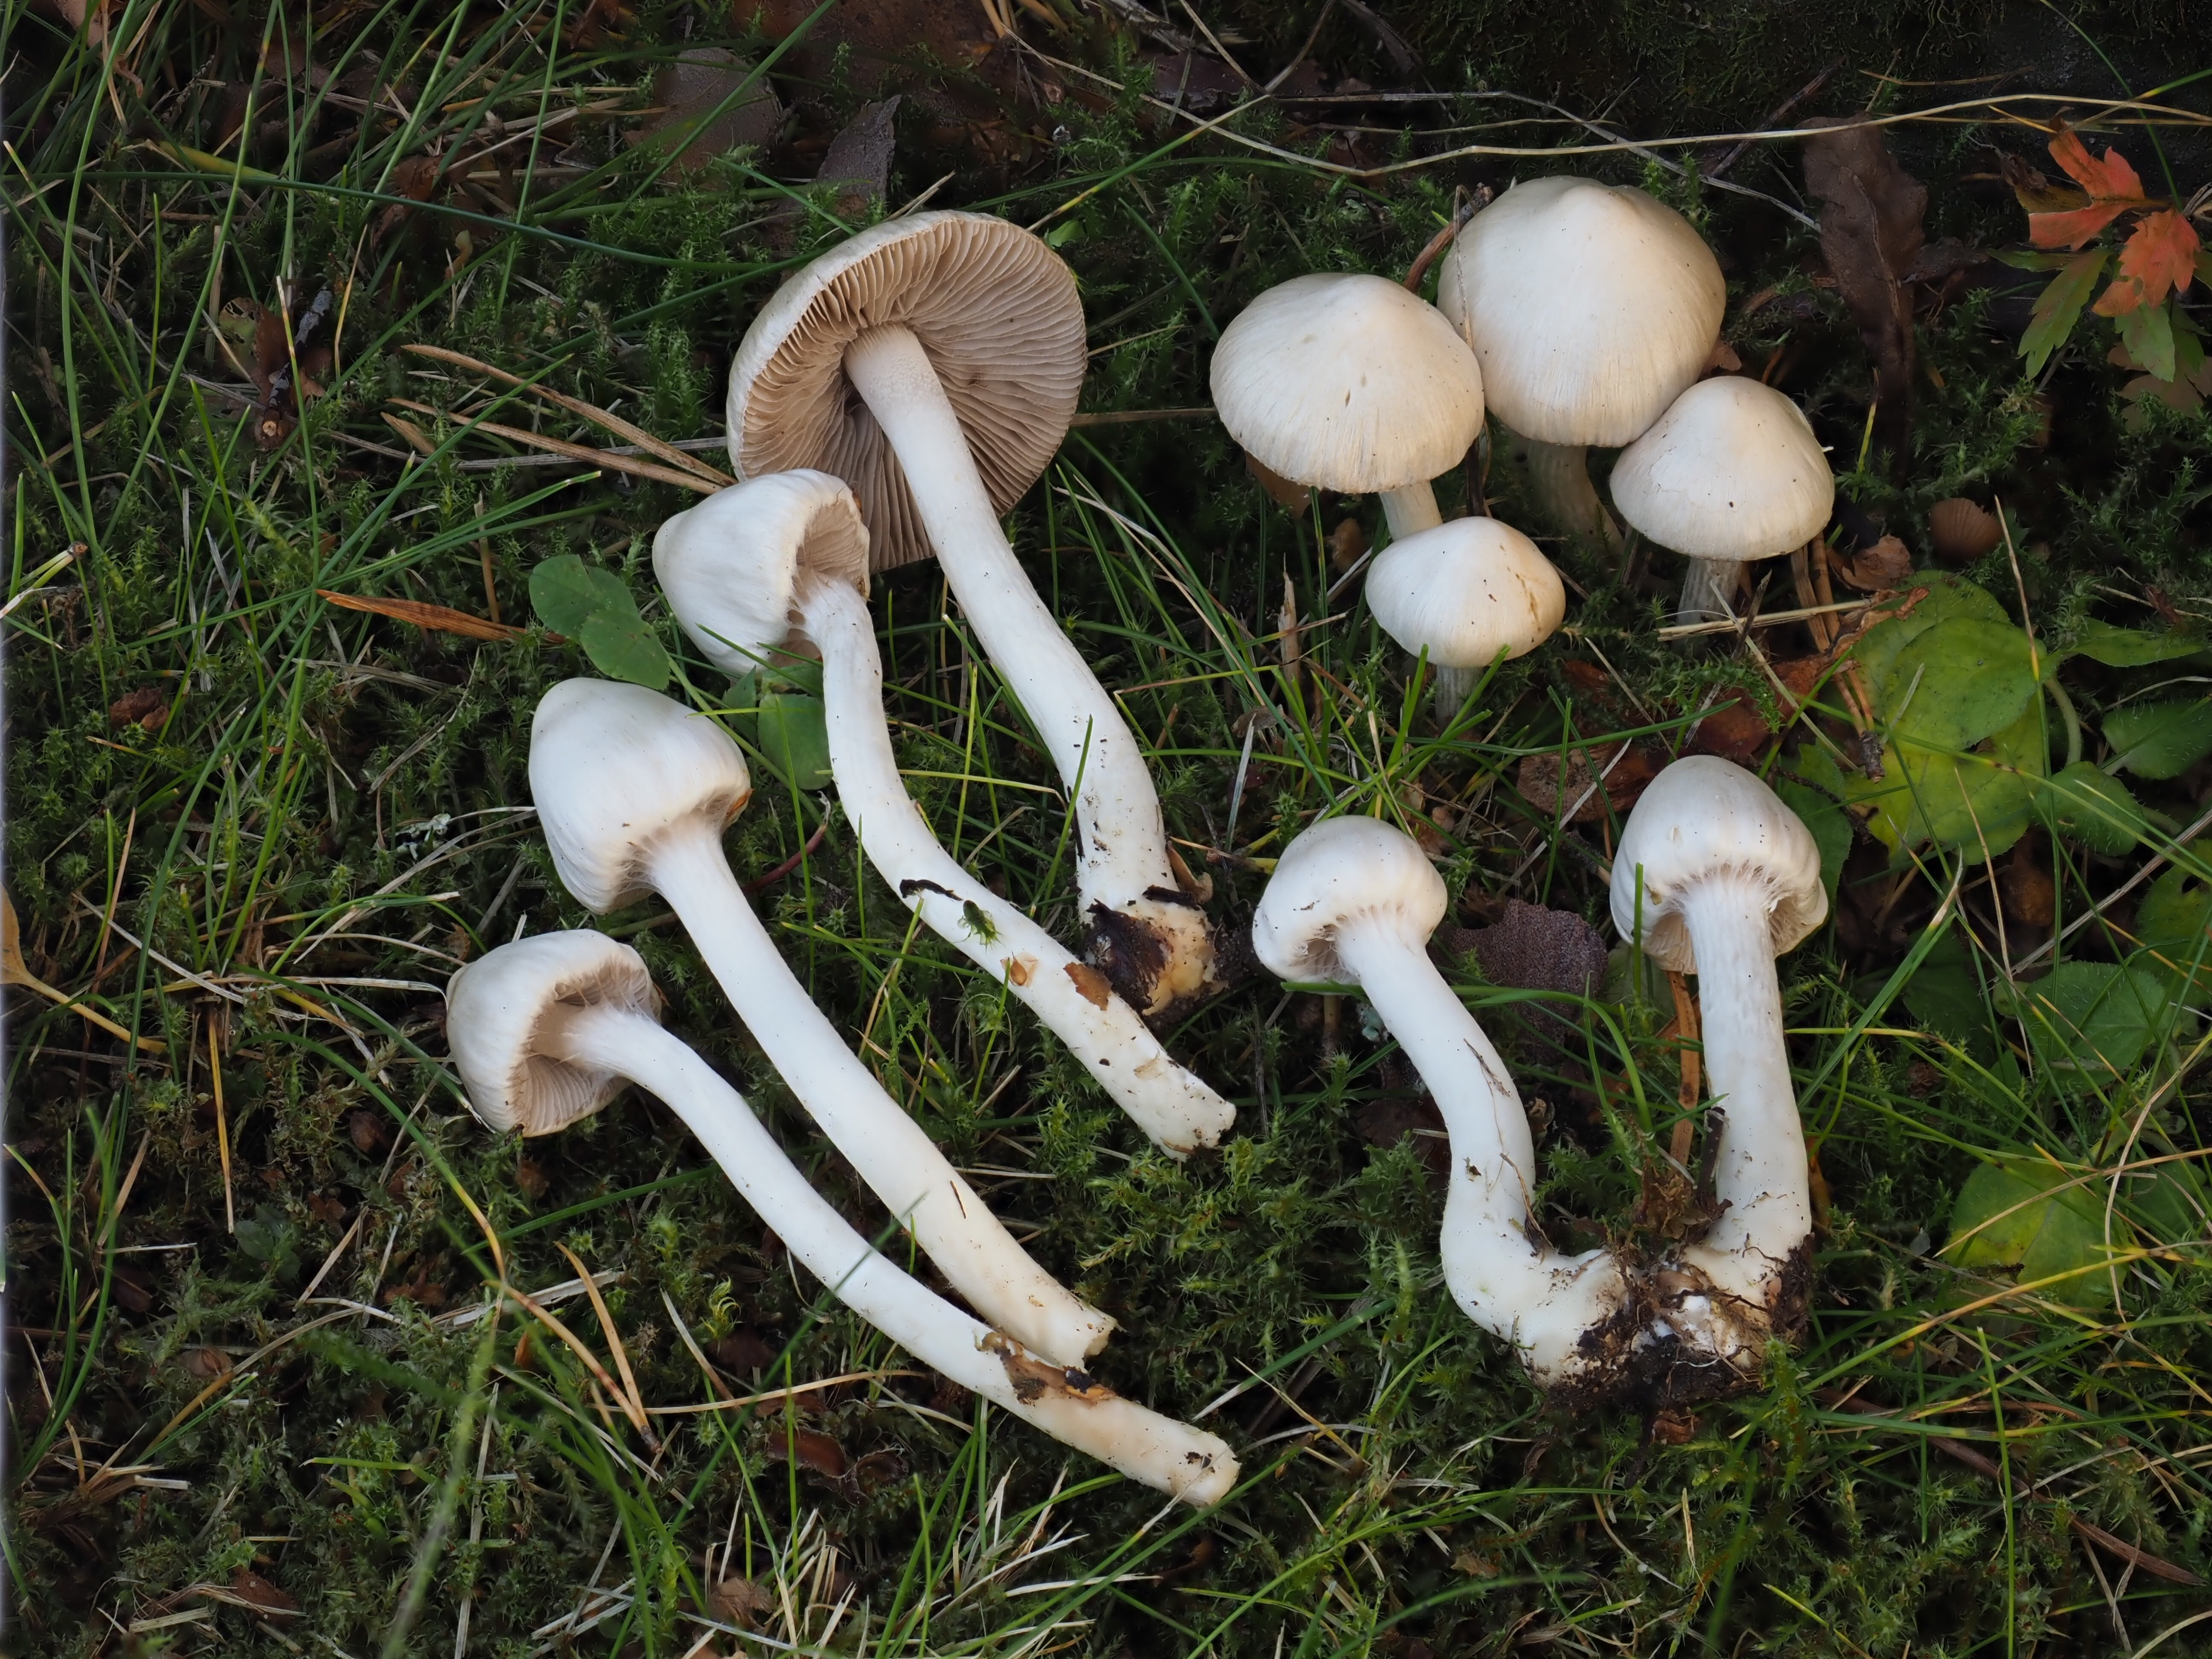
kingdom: Fungi
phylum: Basidiomycota
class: Agaricomycetes
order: Agaricales
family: Inocybaceae
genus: Inocybe
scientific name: Inocybe geophylla
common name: White fibrecap
